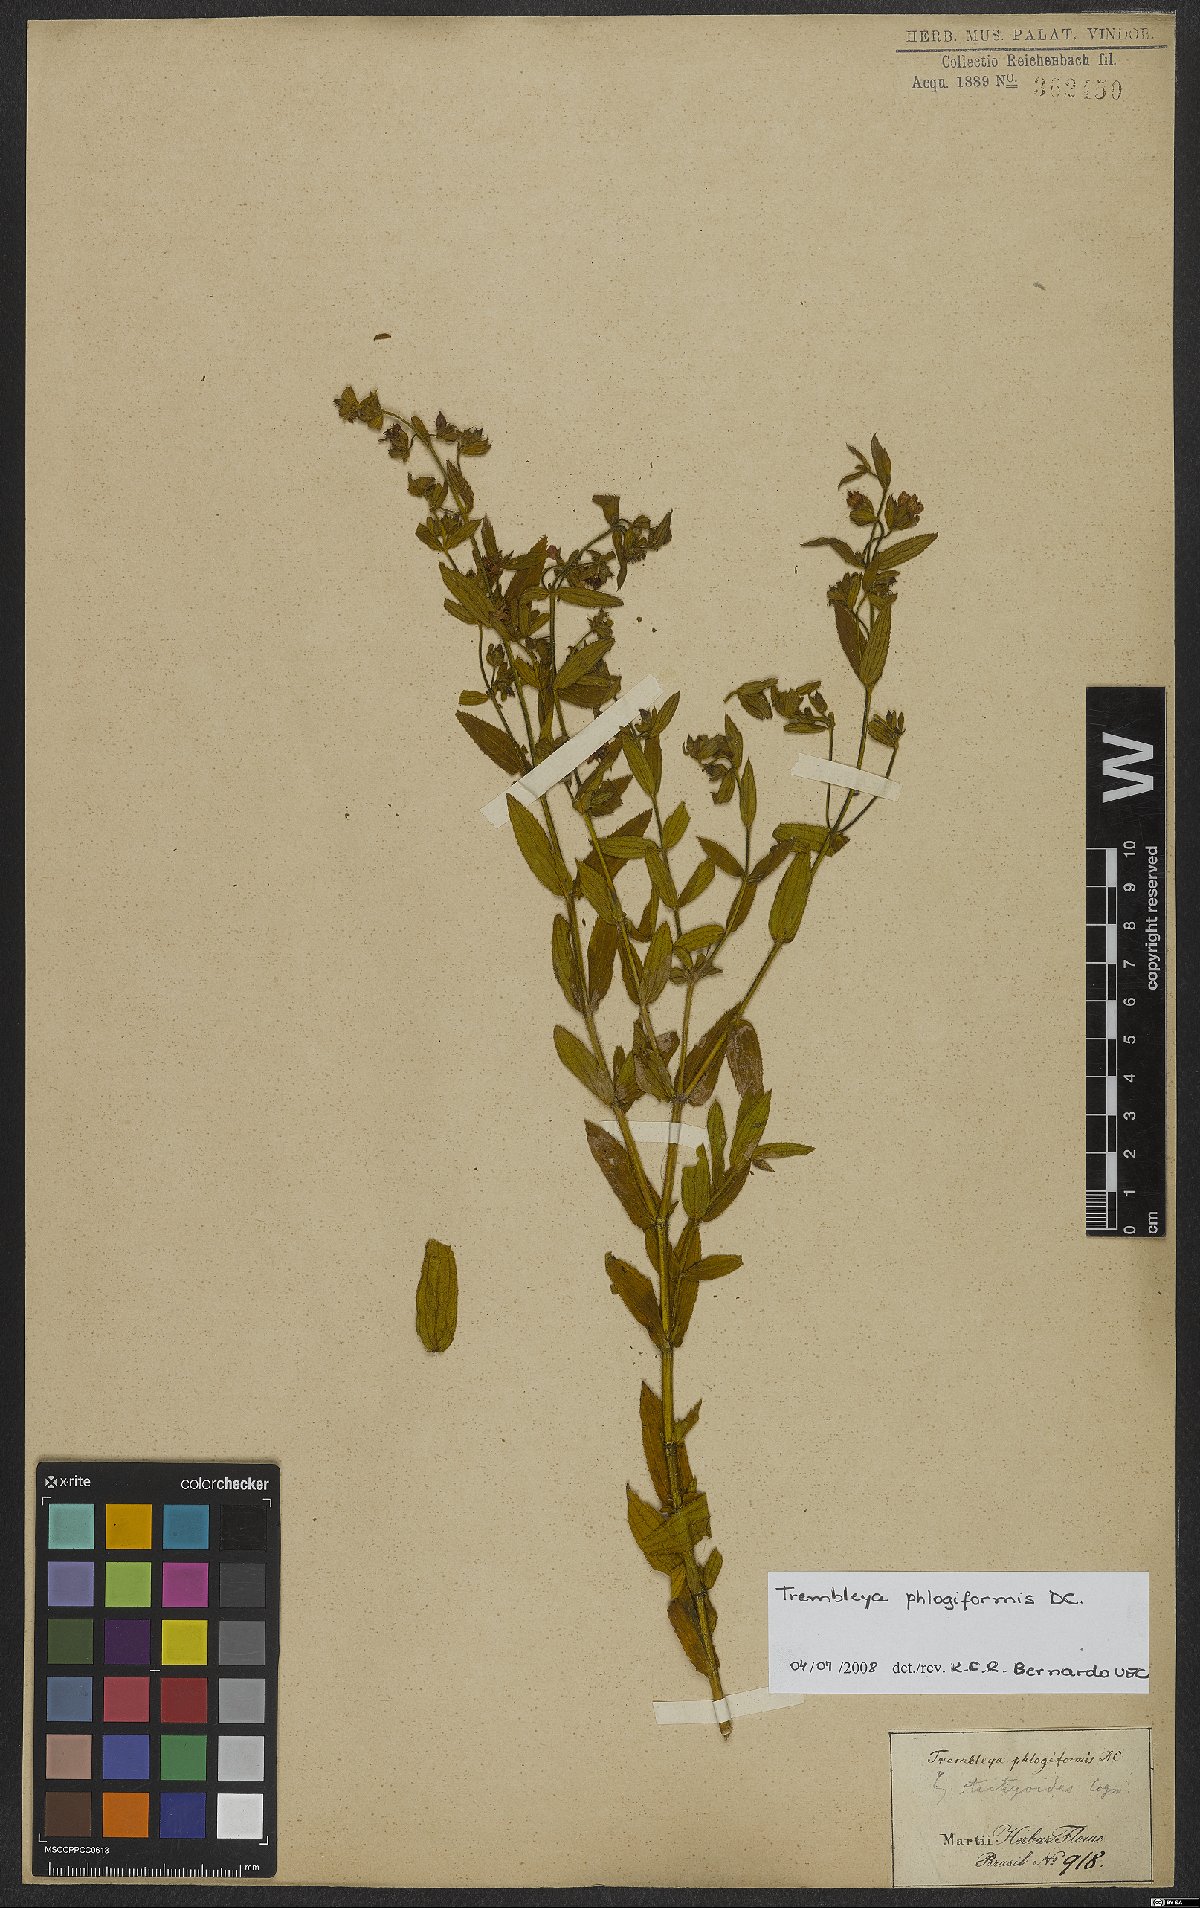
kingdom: Plantae
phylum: Tracheophyta
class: Magnoliopsida
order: Myrtales
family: Melastomataceae
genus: Microlicia
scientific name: Microlicia phlogiformis
